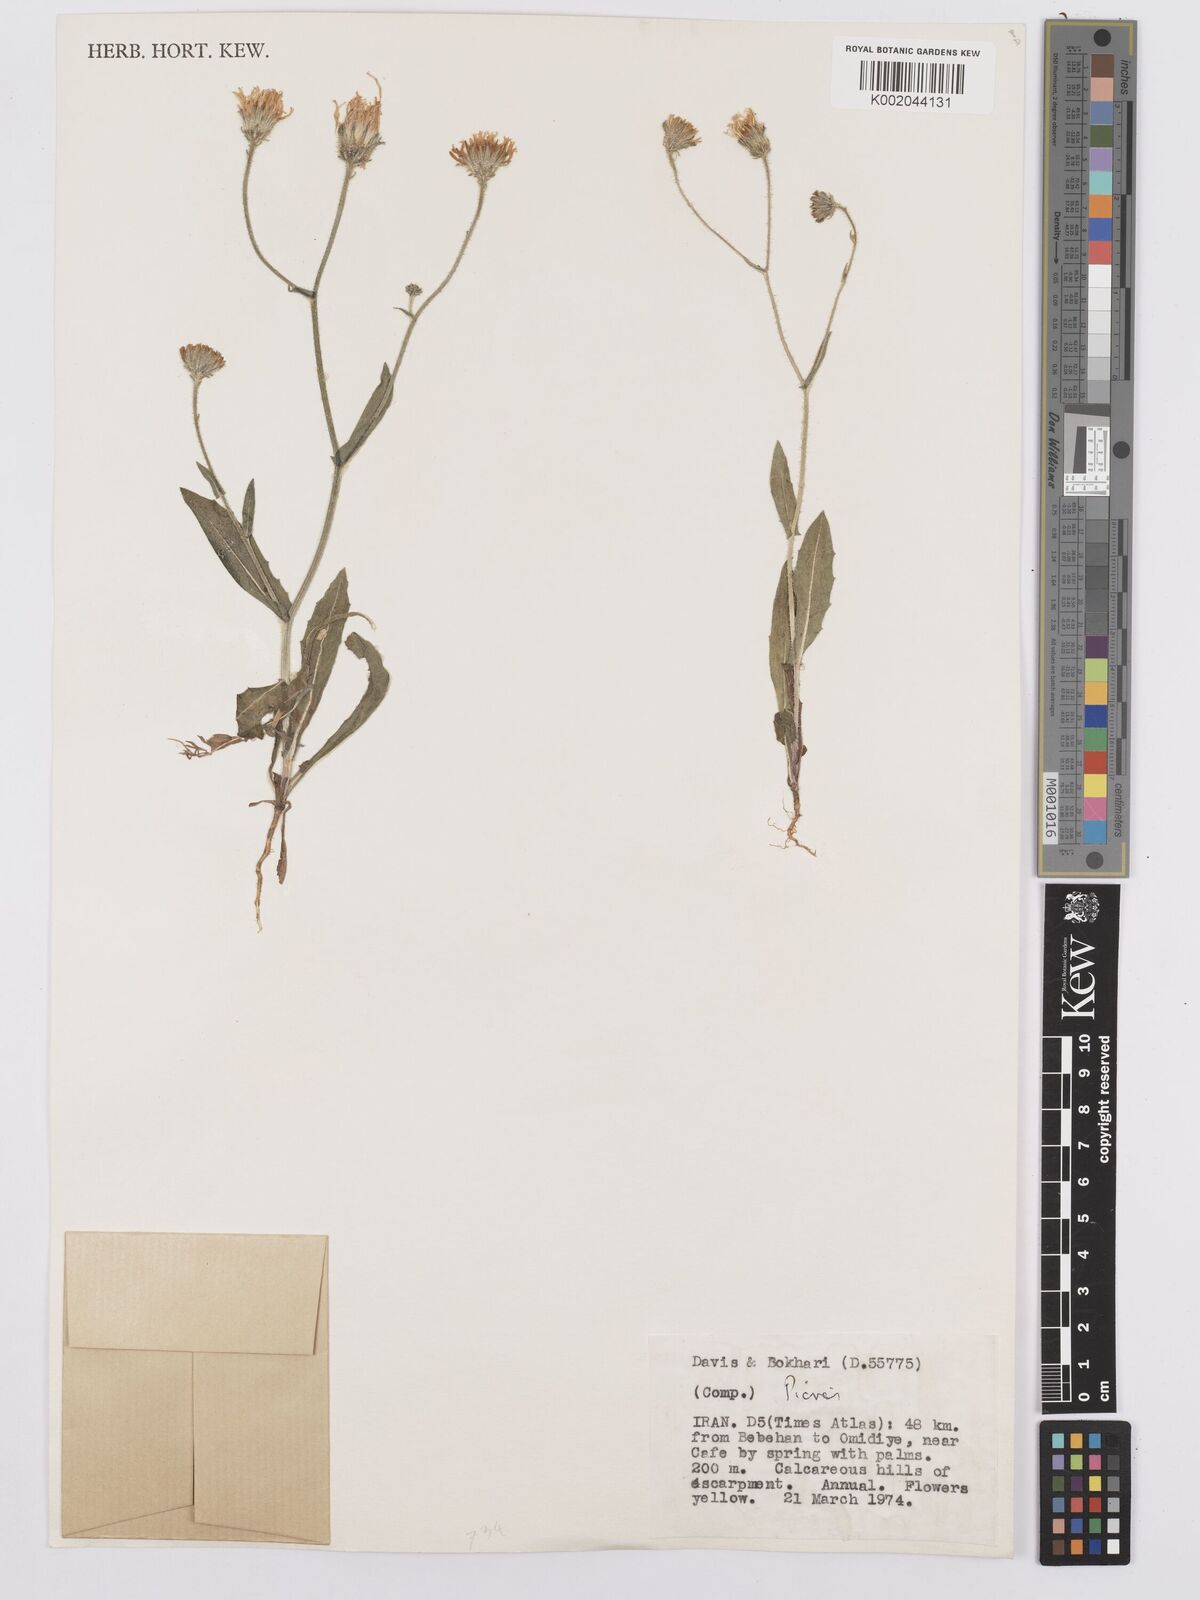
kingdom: Plantae
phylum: Tracheophyta
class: Magnoliopsida
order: Asterales
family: Asteraceae
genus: Picris
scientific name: Picris
